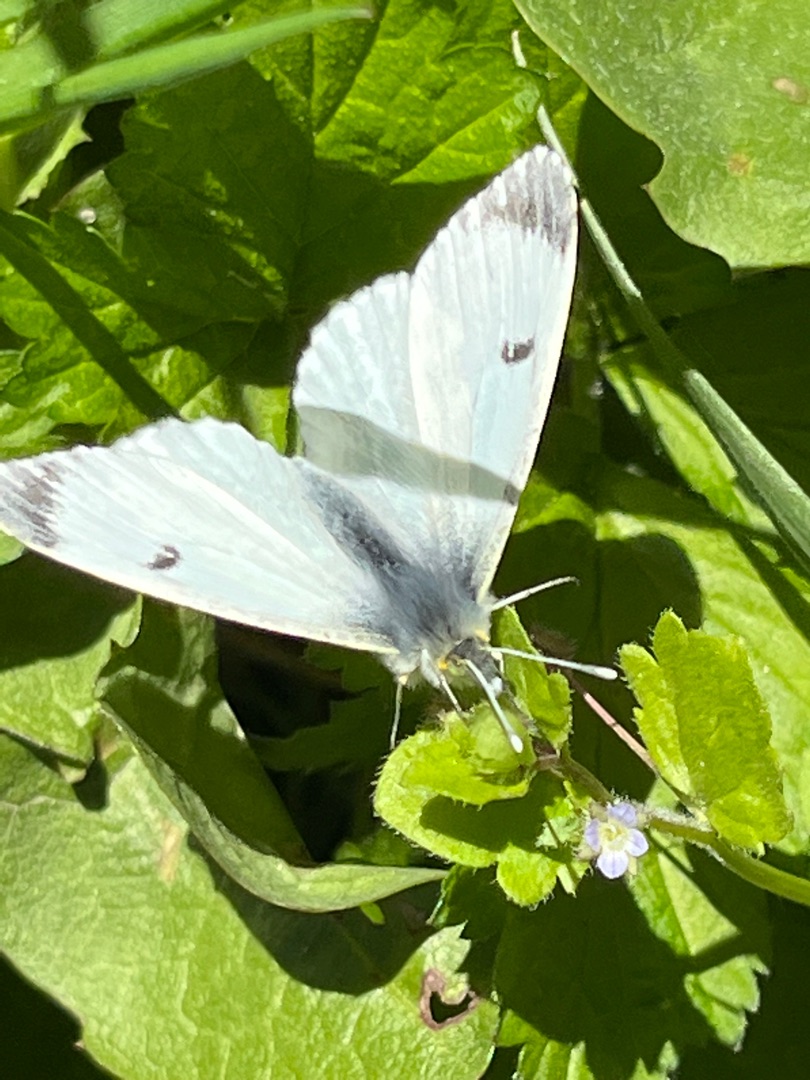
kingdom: Animalia
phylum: Arthropoda
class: Insecta
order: Lepidoptera
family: Pieridae
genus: Anthocharis
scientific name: Anthocharis cardamines
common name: Aurora
